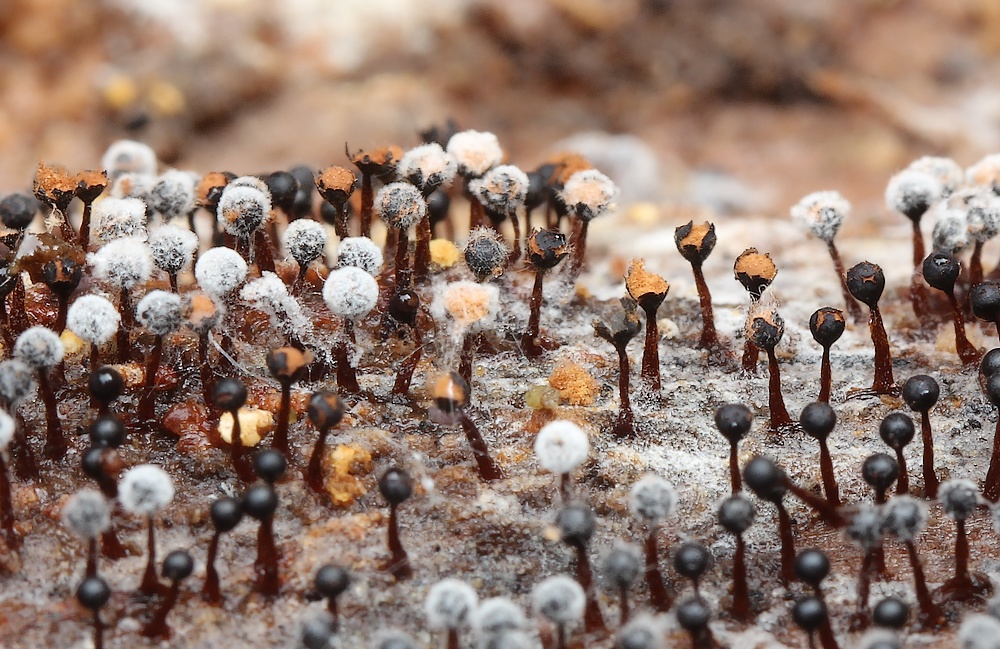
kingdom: Protozoa
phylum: Mycetozoa
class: Myxomycetes
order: Trichiales
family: Trichiaceae
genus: Metatrichia
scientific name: Metatrichia floriformis
